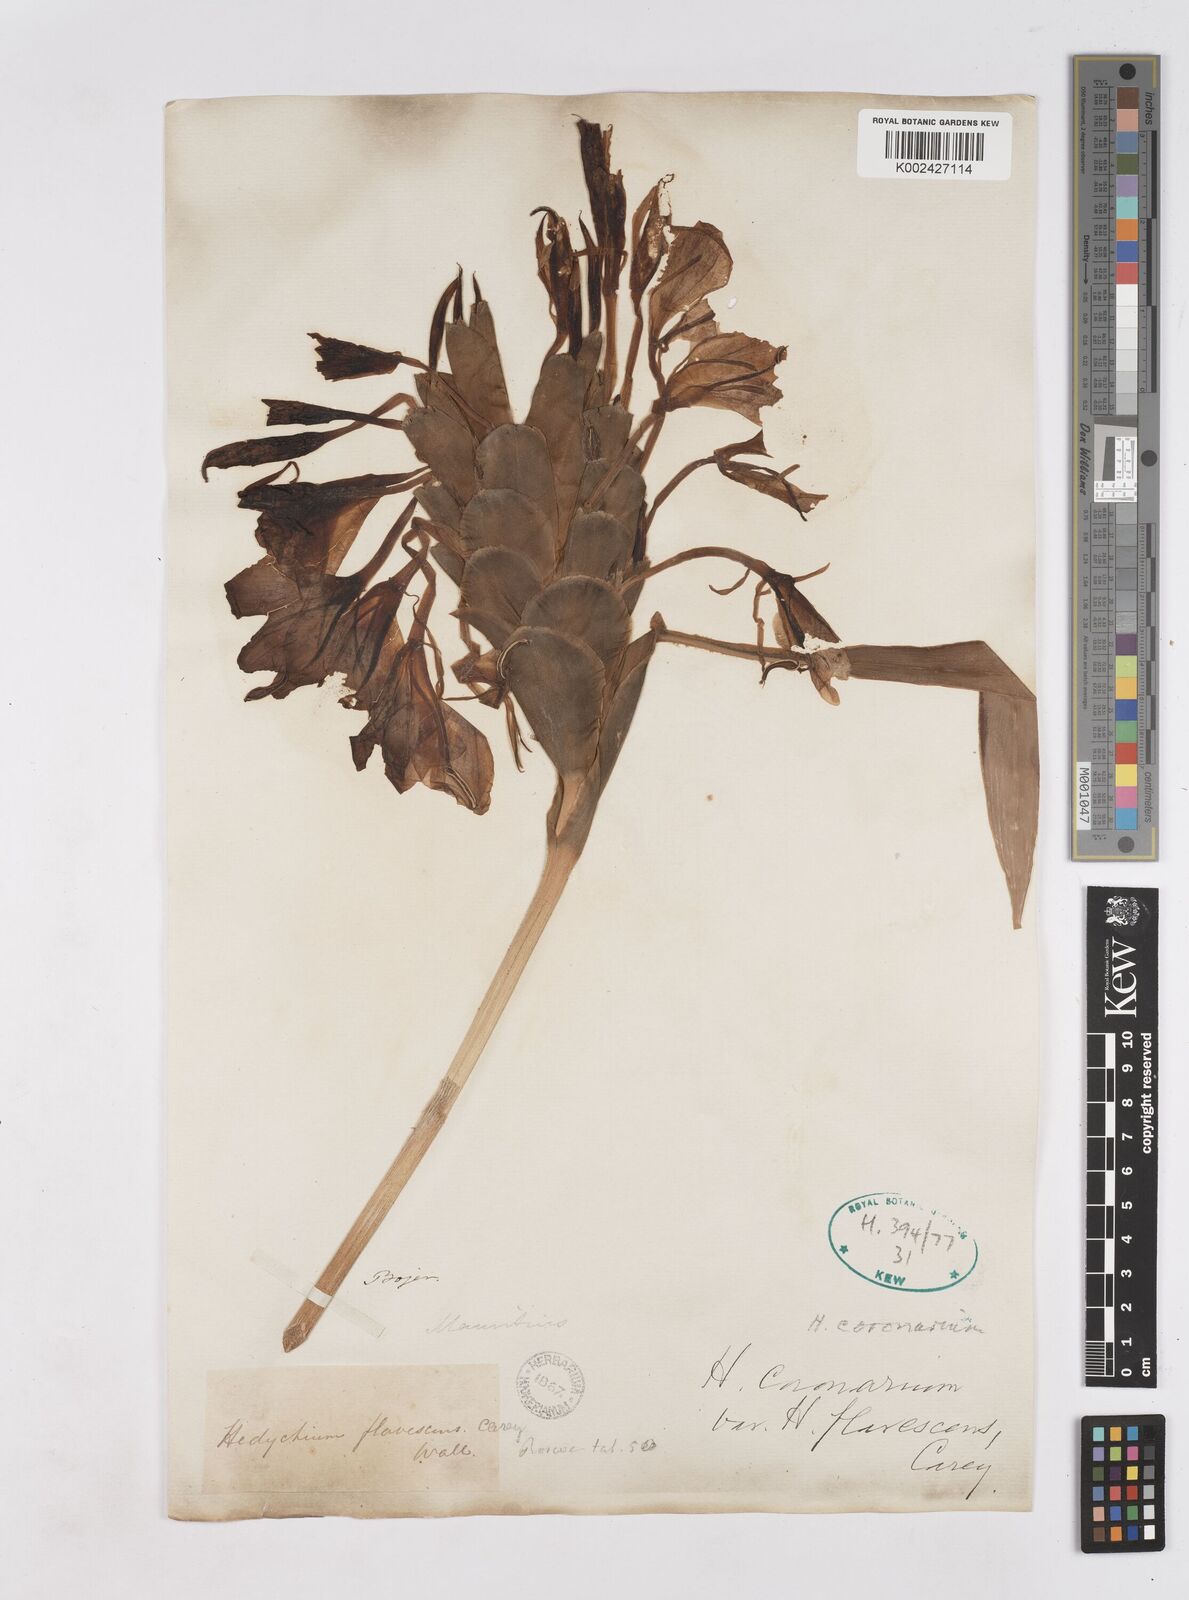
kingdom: Plantae
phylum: Tracheophyta
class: Liliopsida
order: Zingiberales
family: Zingiberaceae
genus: Hedychium
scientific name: Hedychium coronarium
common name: White garland-lily
